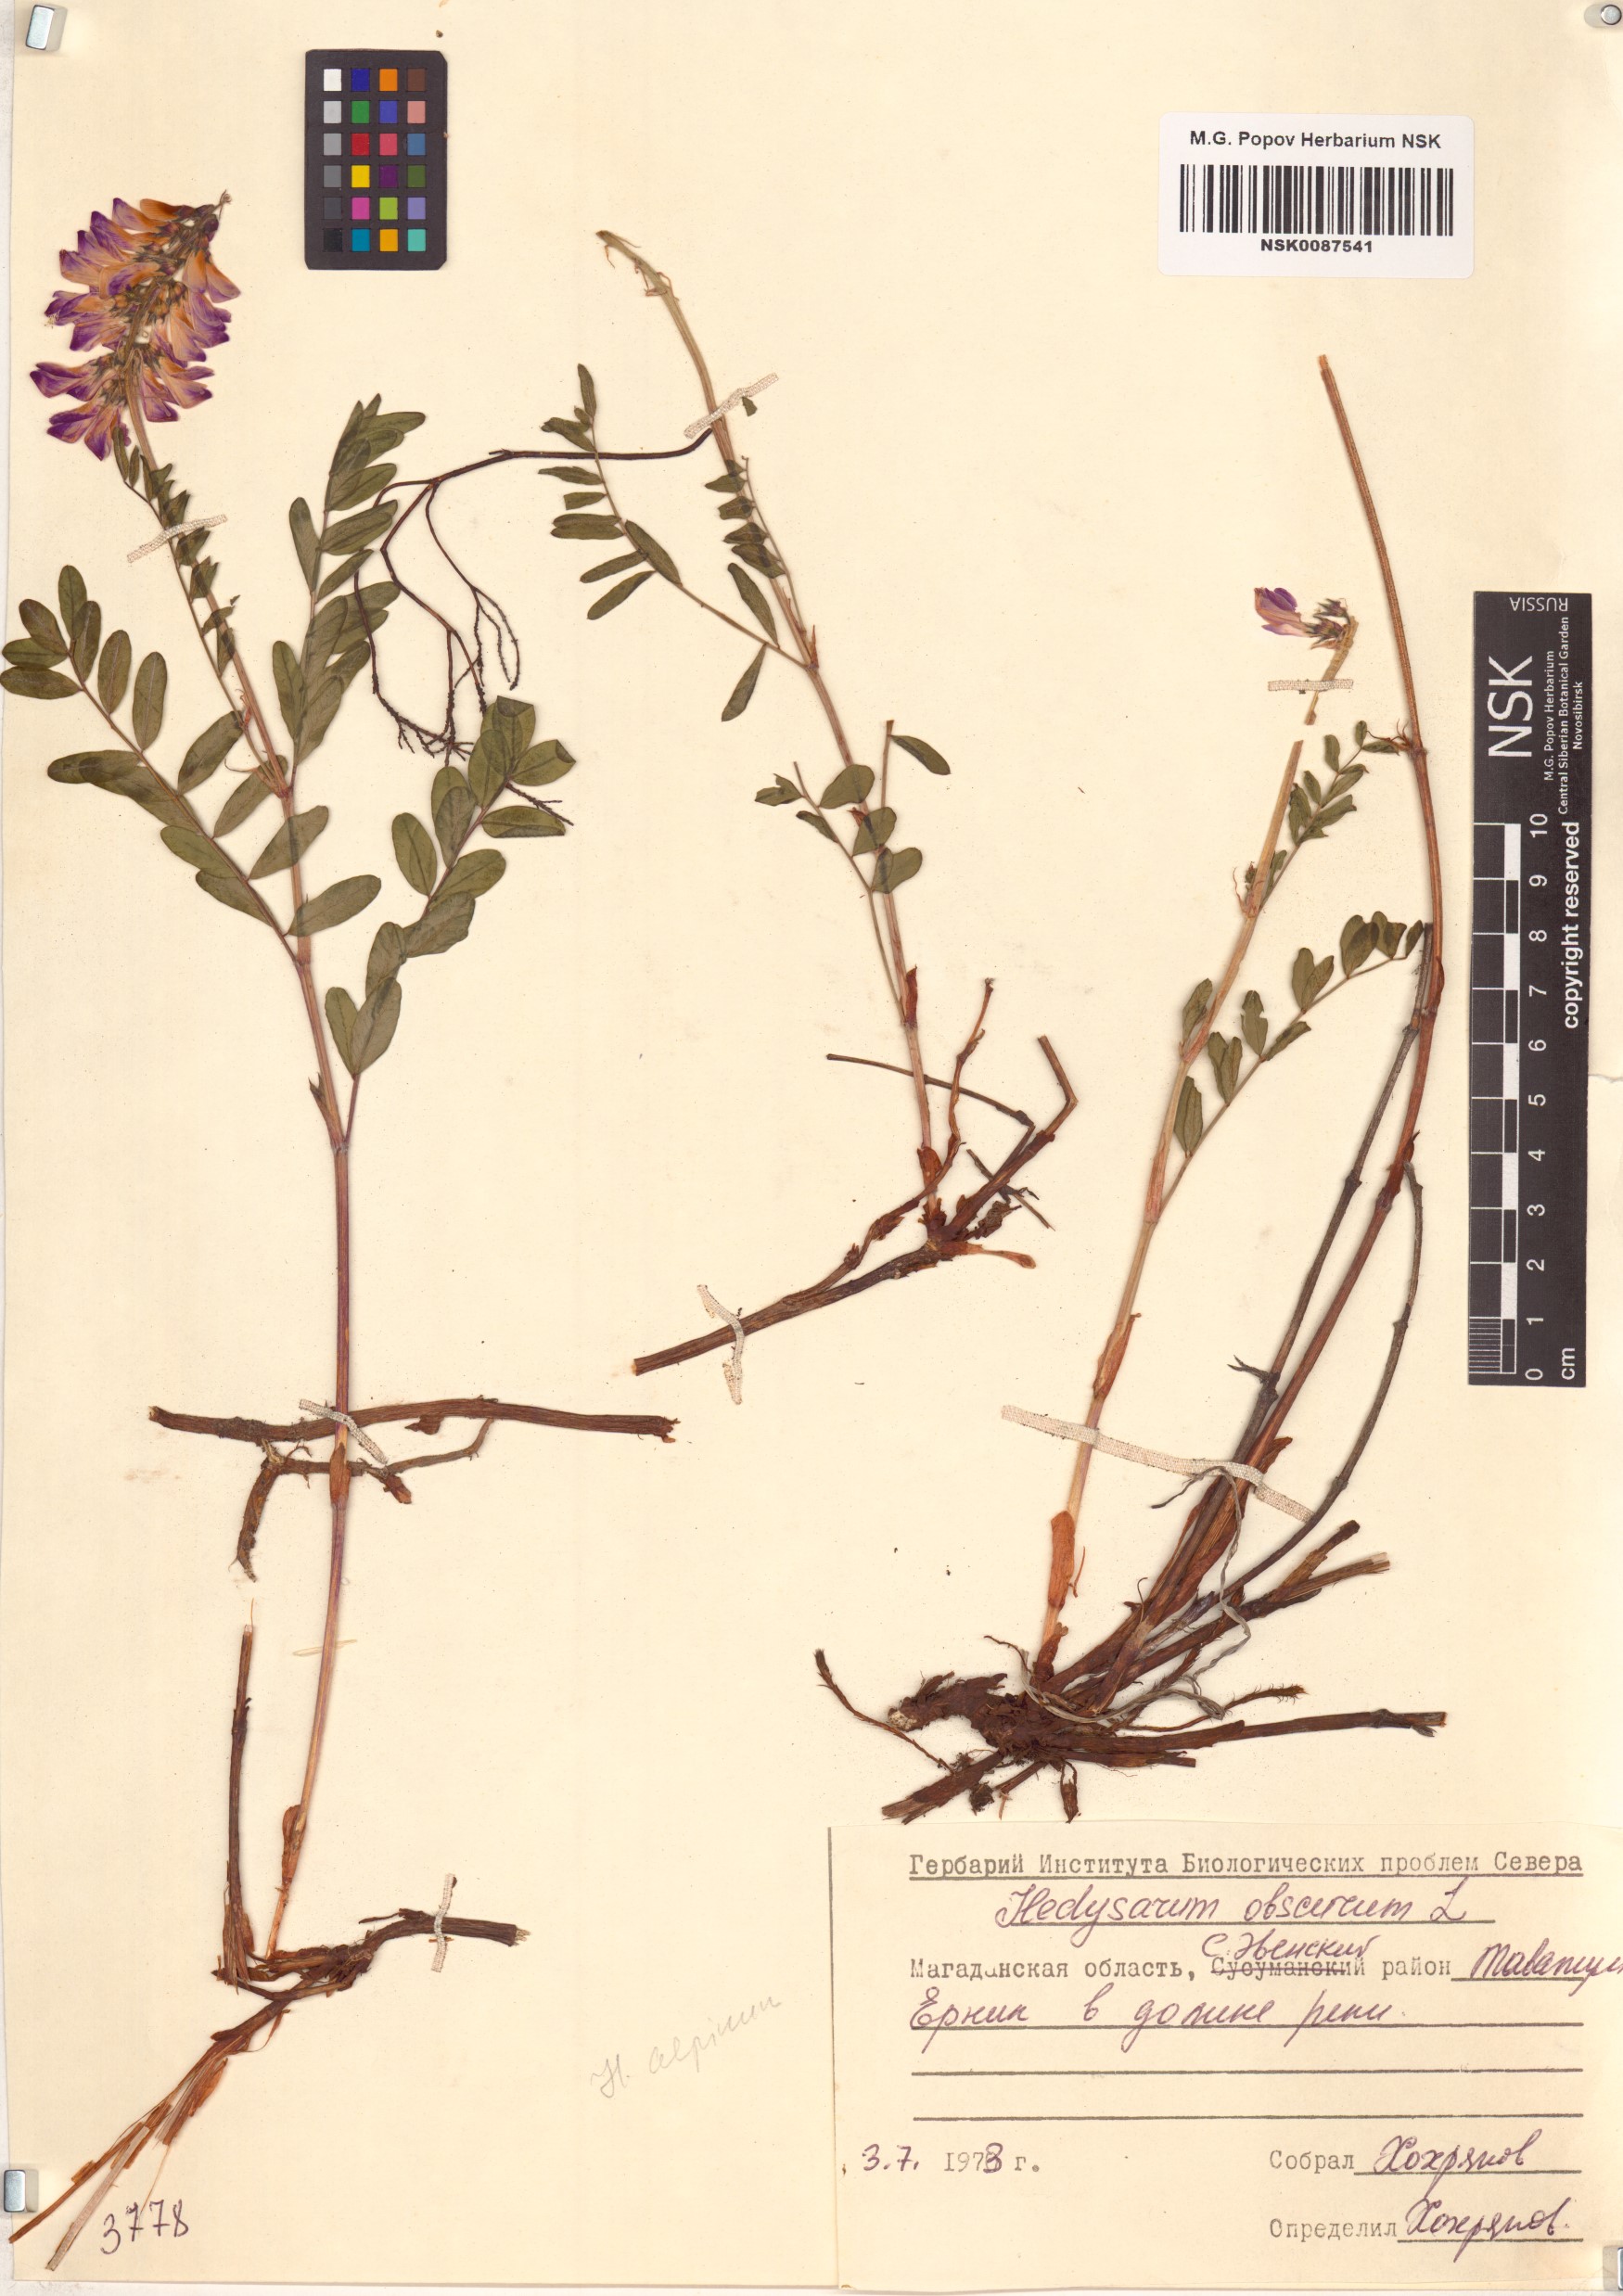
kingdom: Plantae
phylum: Tracheophyta
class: Magnoliopsida
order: Fabales
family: Fabaceae
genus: Hedysarum
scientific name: Hedysarum hedysaroides
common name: Alpine french-honeysuckle
